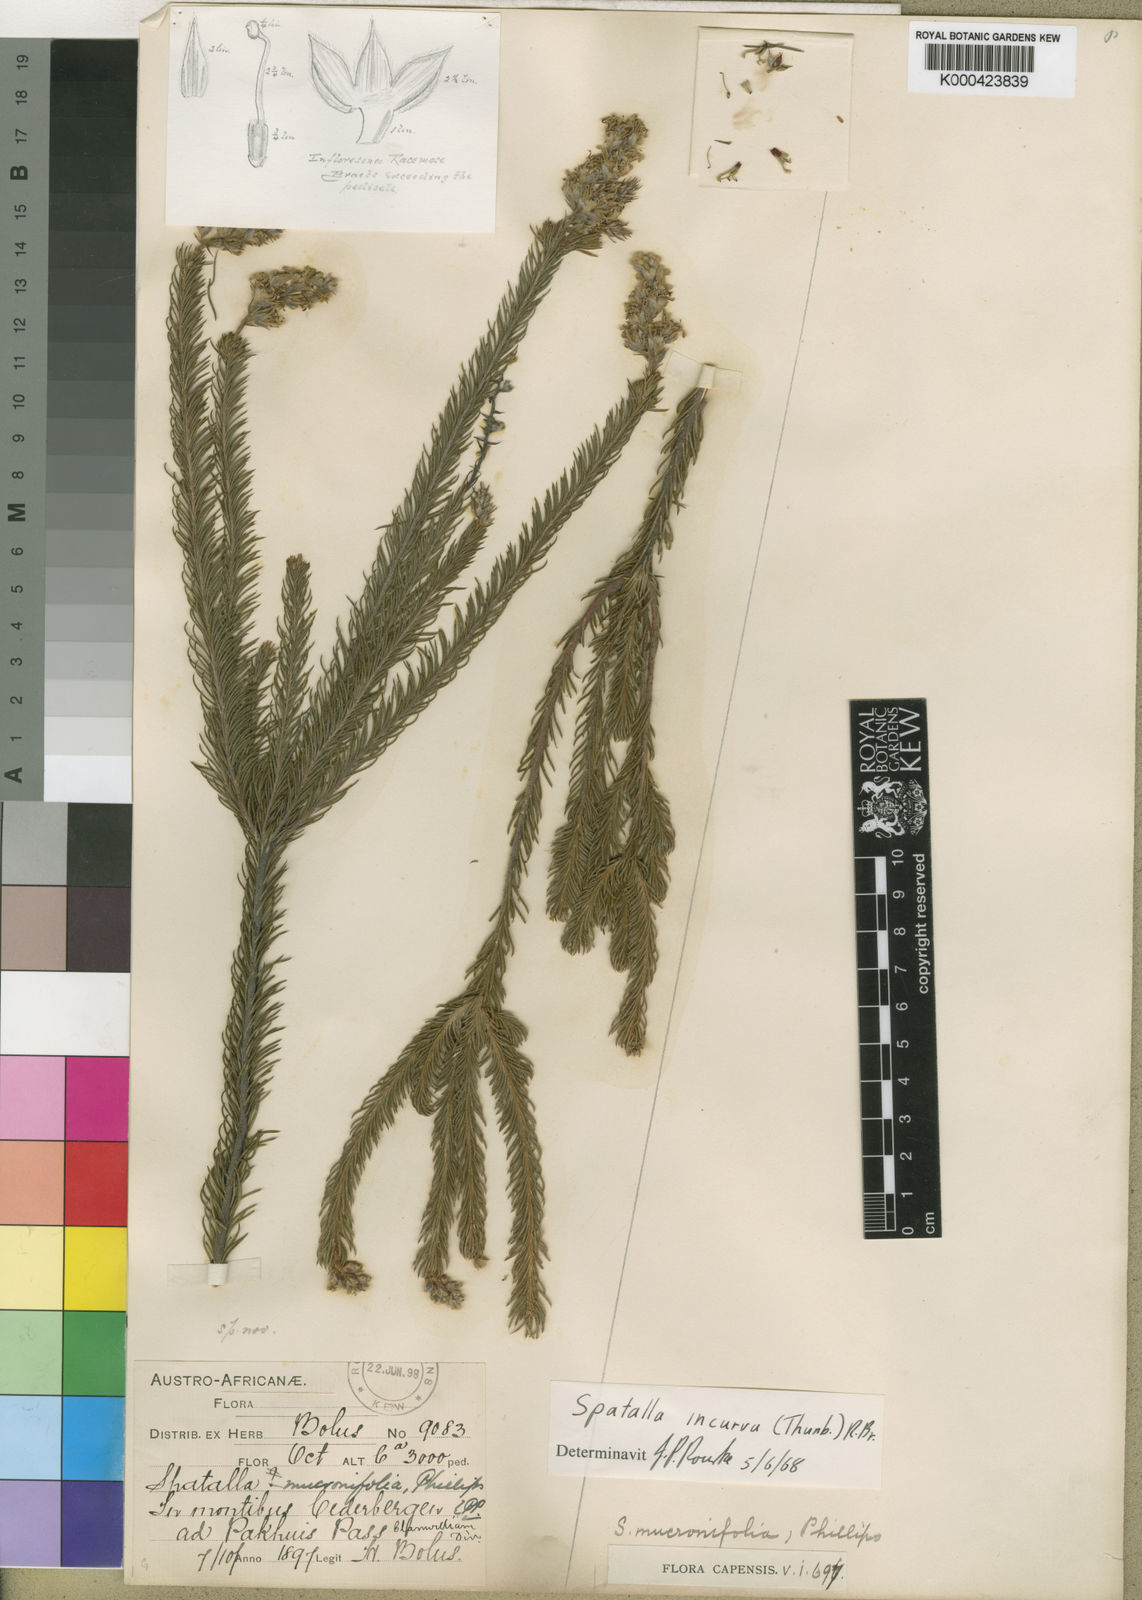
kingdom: Plantae
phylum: Tracheophyta
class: Magnoliopsida
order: Proteales
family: Proteaceae
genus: Spatalla
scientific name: Spatalla incurva
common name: Swan-head spoon
